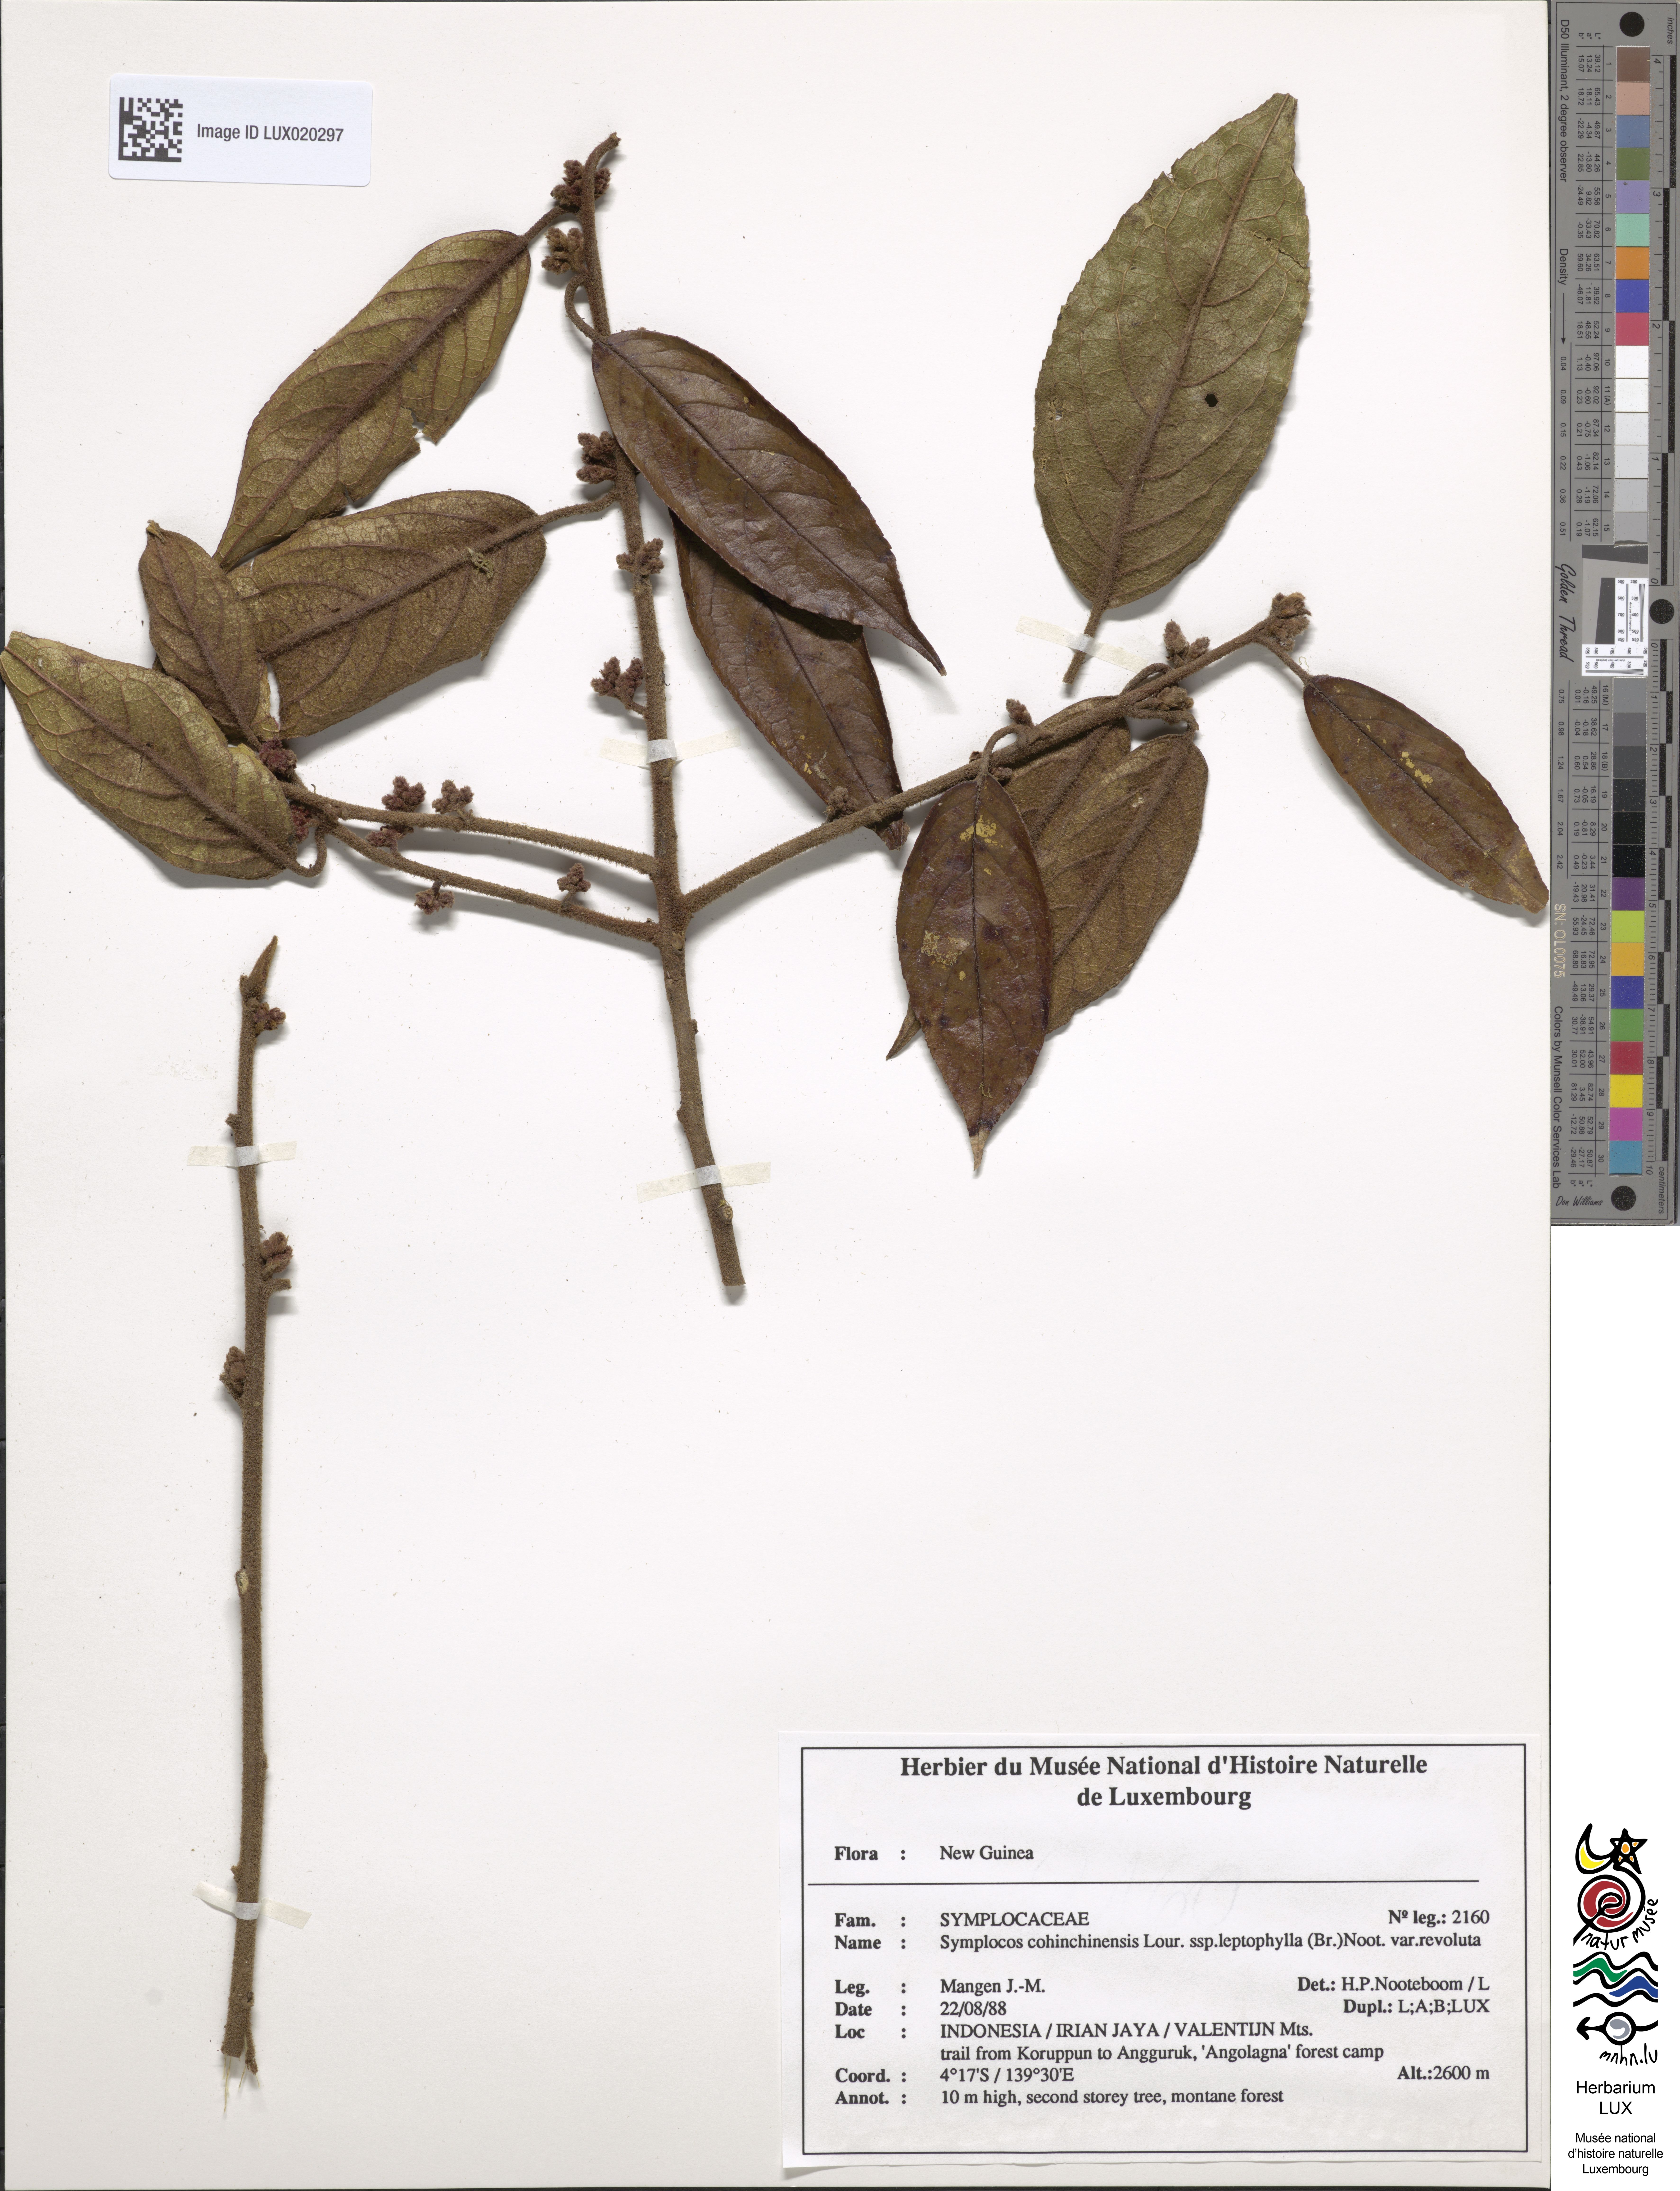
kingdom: Plantae
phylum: Tracheophyta
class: Magnoliopsida
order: Ericales
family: Symplocaceae
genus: Symplocos
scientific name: Symplocos cochinchinensis
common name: Buff hazelwood
